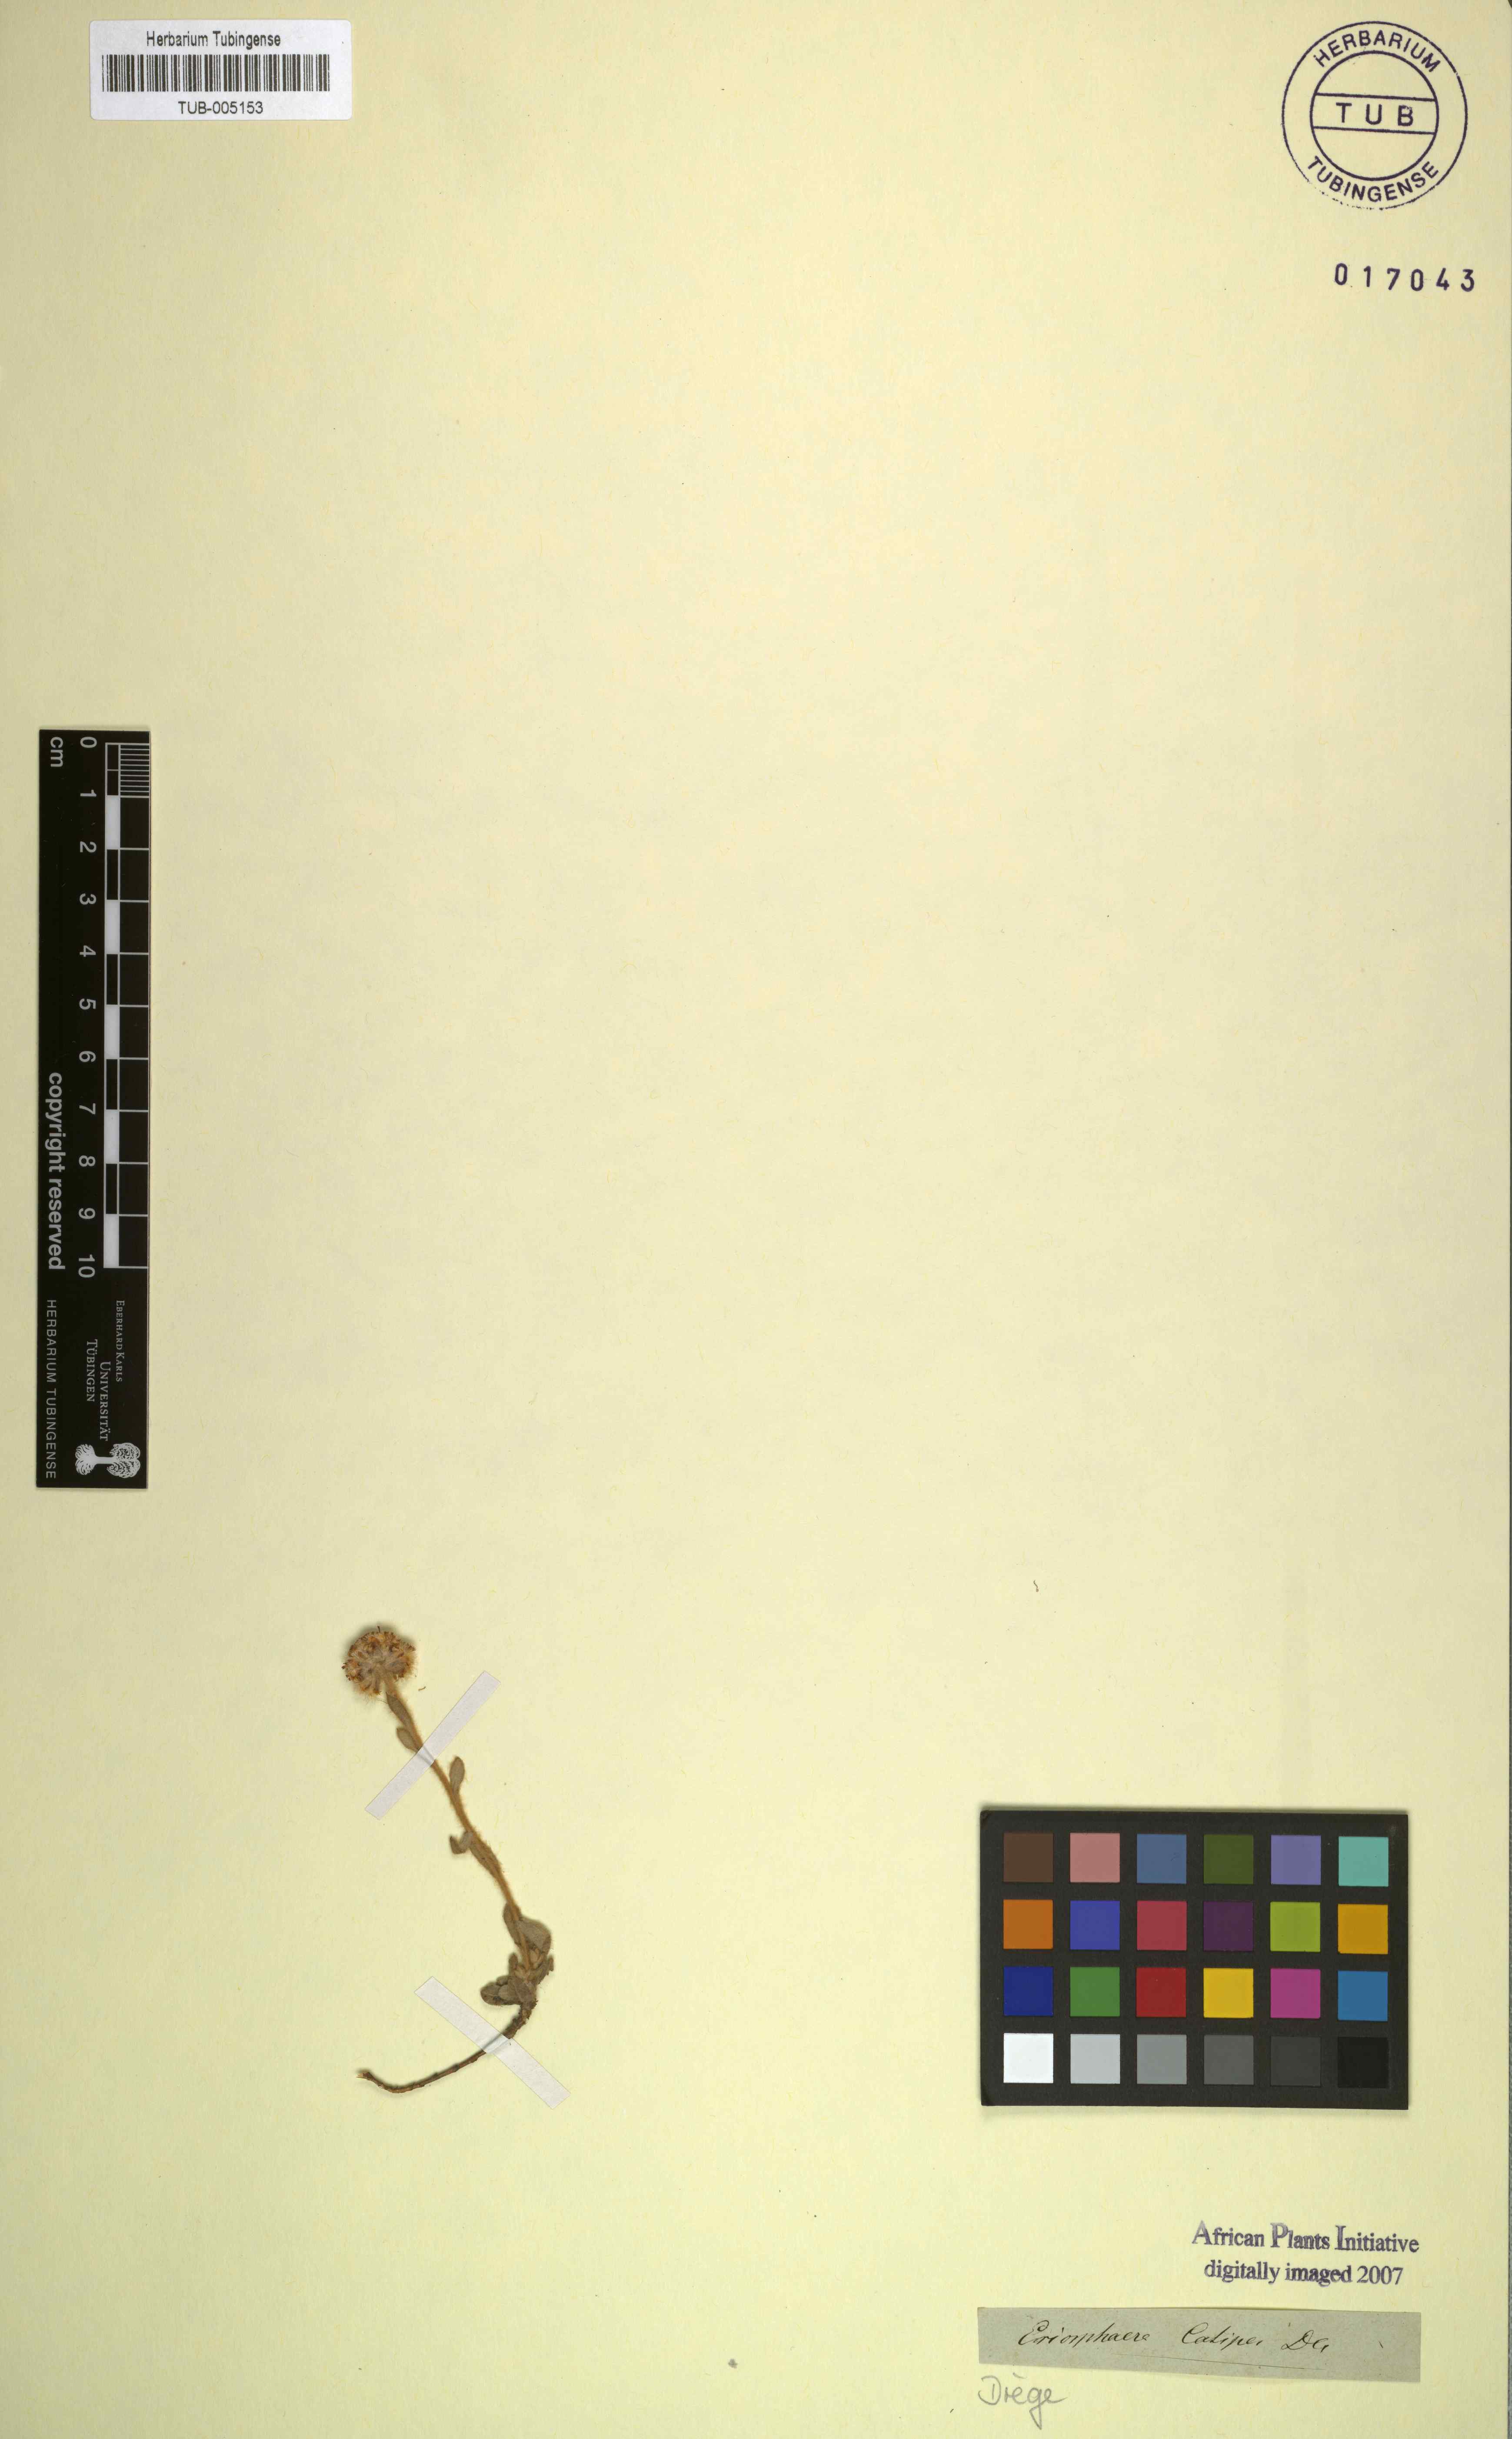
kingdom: Plantae
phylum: Tracheophyta
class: Magnoliopsida
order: Asterales
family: Asteraceae
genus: Helichrysum
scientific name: Helichrysum catipes
